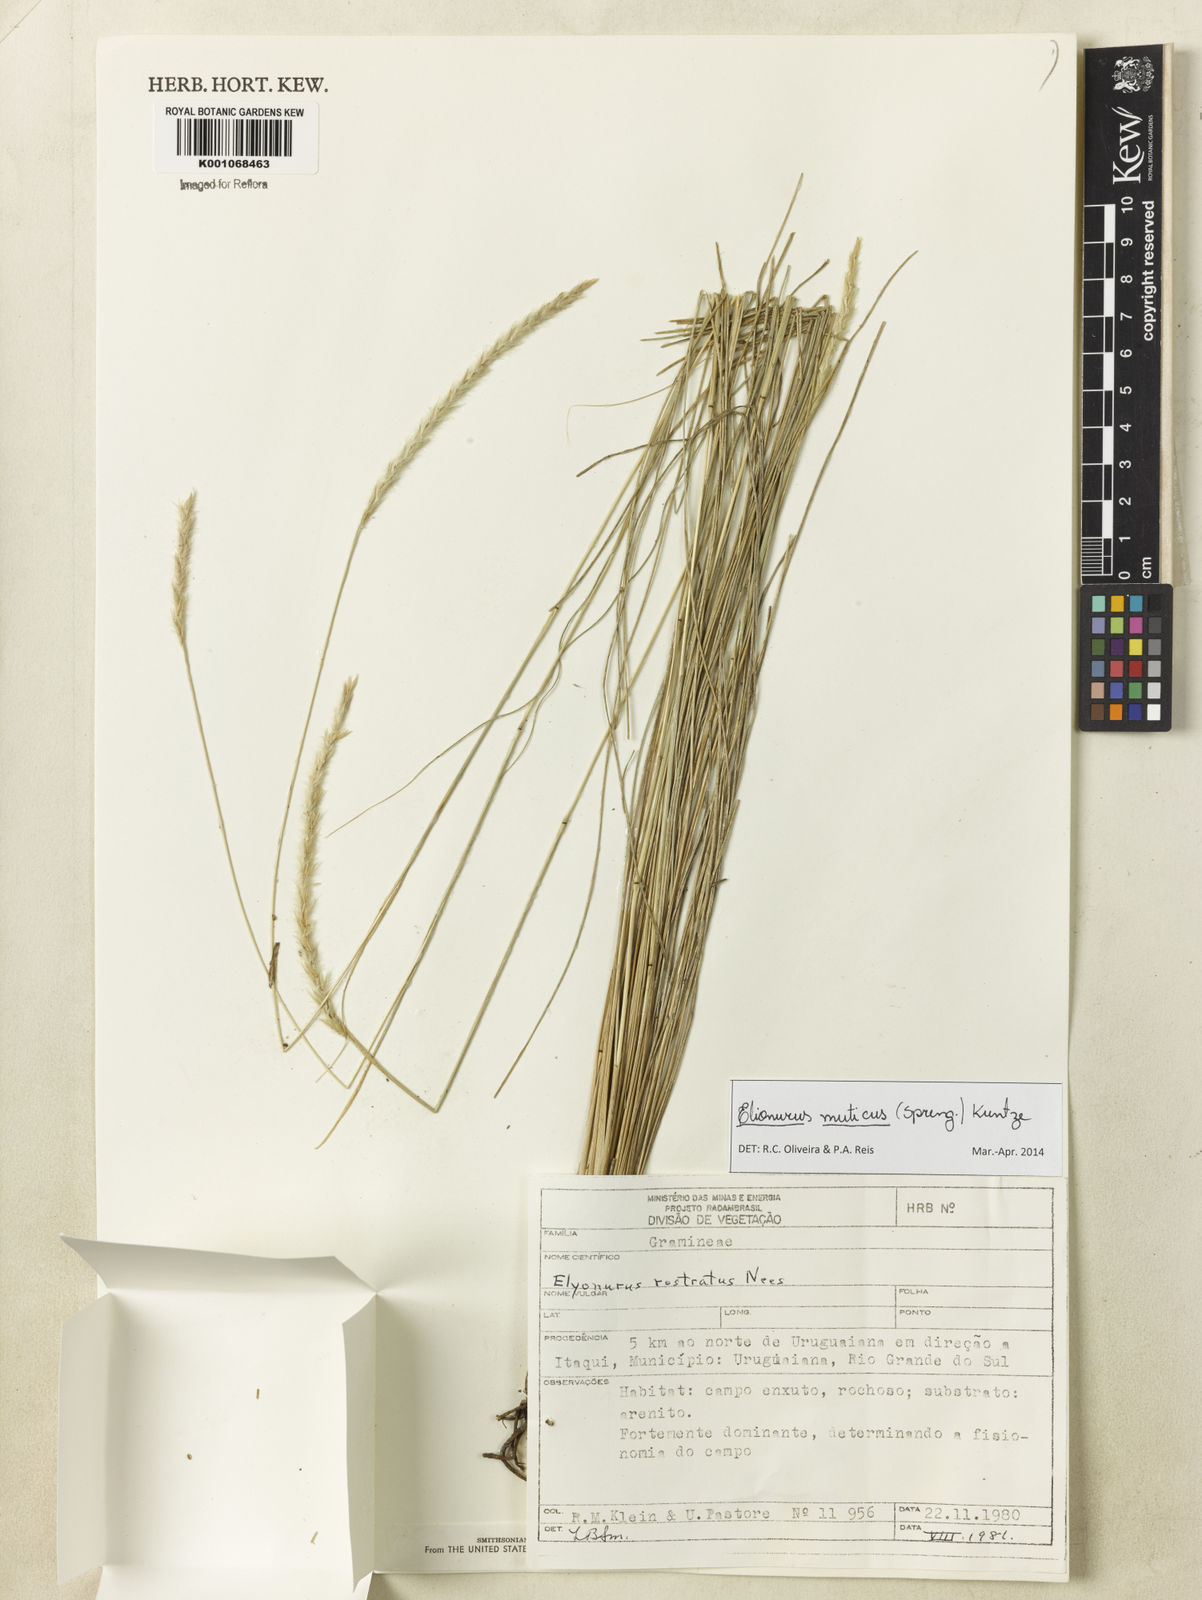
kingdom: Plantae
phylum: Tracheophyta
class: Liliopsida
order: Poales
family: Poaceae
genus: Elionurus
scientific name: Elionurus muticus
